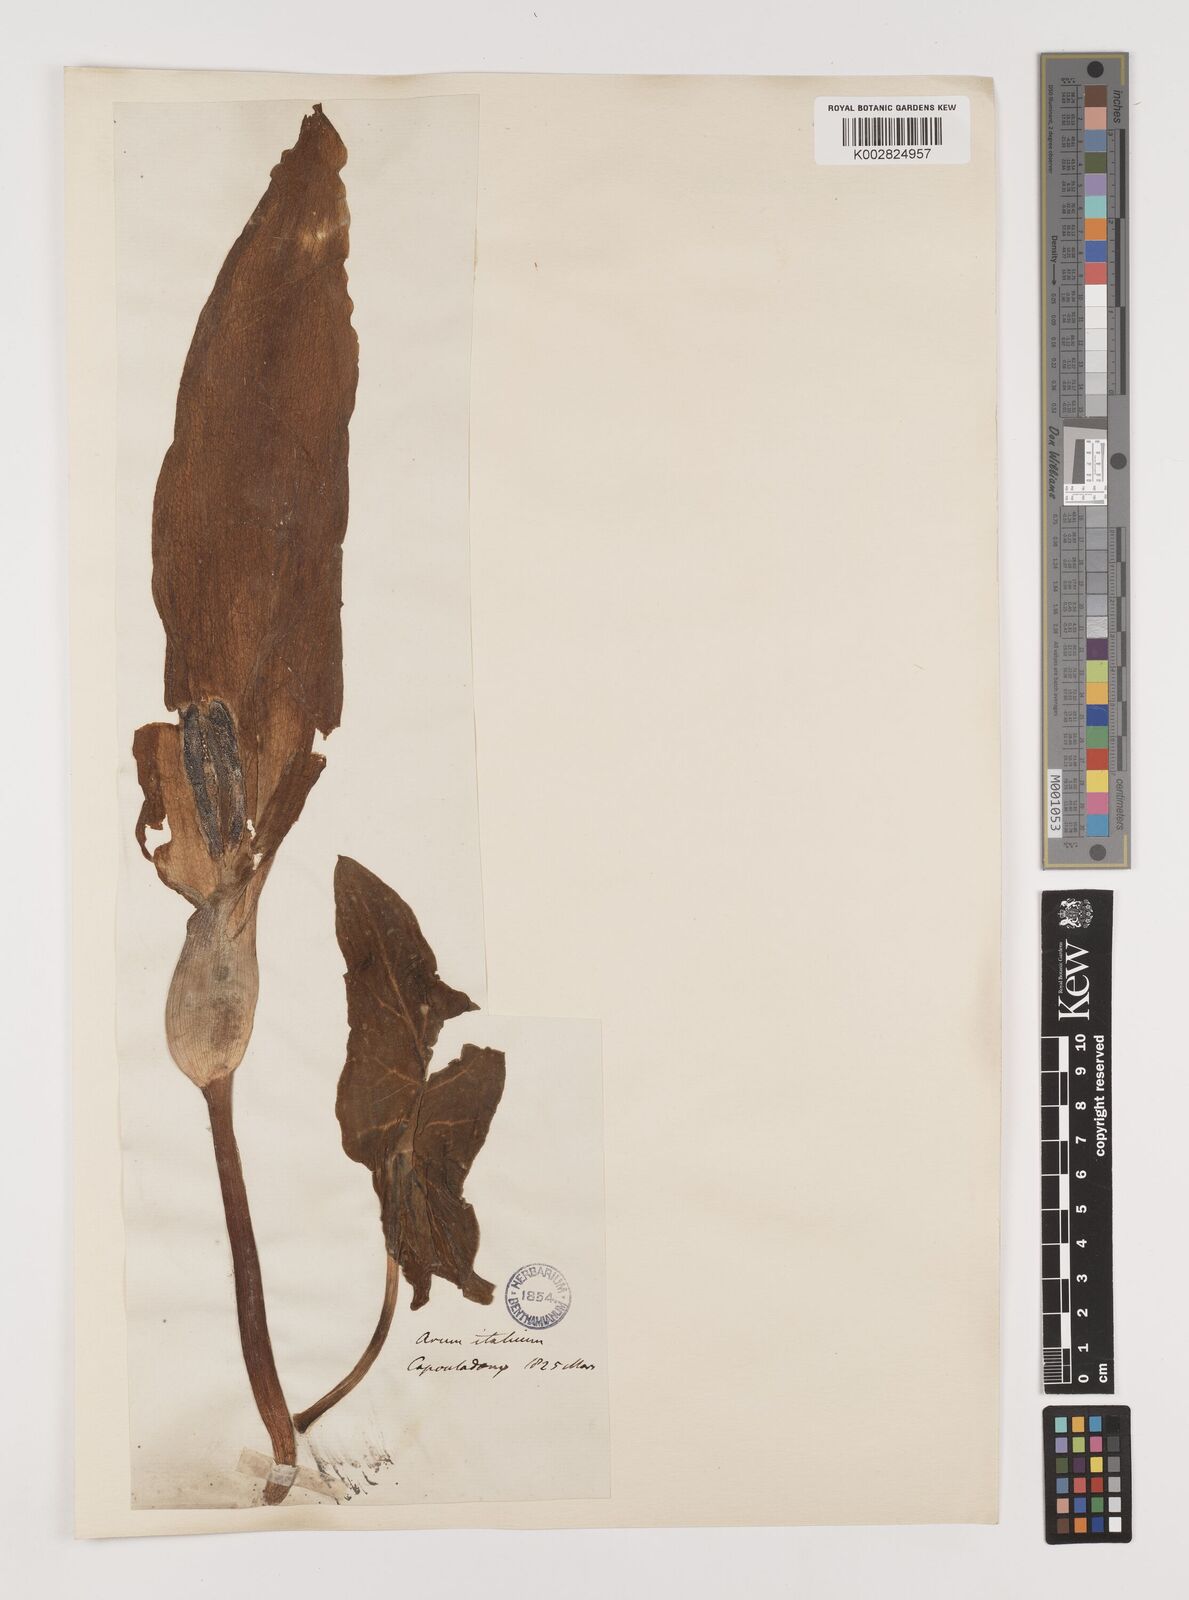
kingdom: Plantae
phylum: Tracheophyta
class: Liliopsida
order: Alismatales
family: Araceae
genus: Arum
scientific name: Arum italicum
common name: Italian lords-and-ladies
